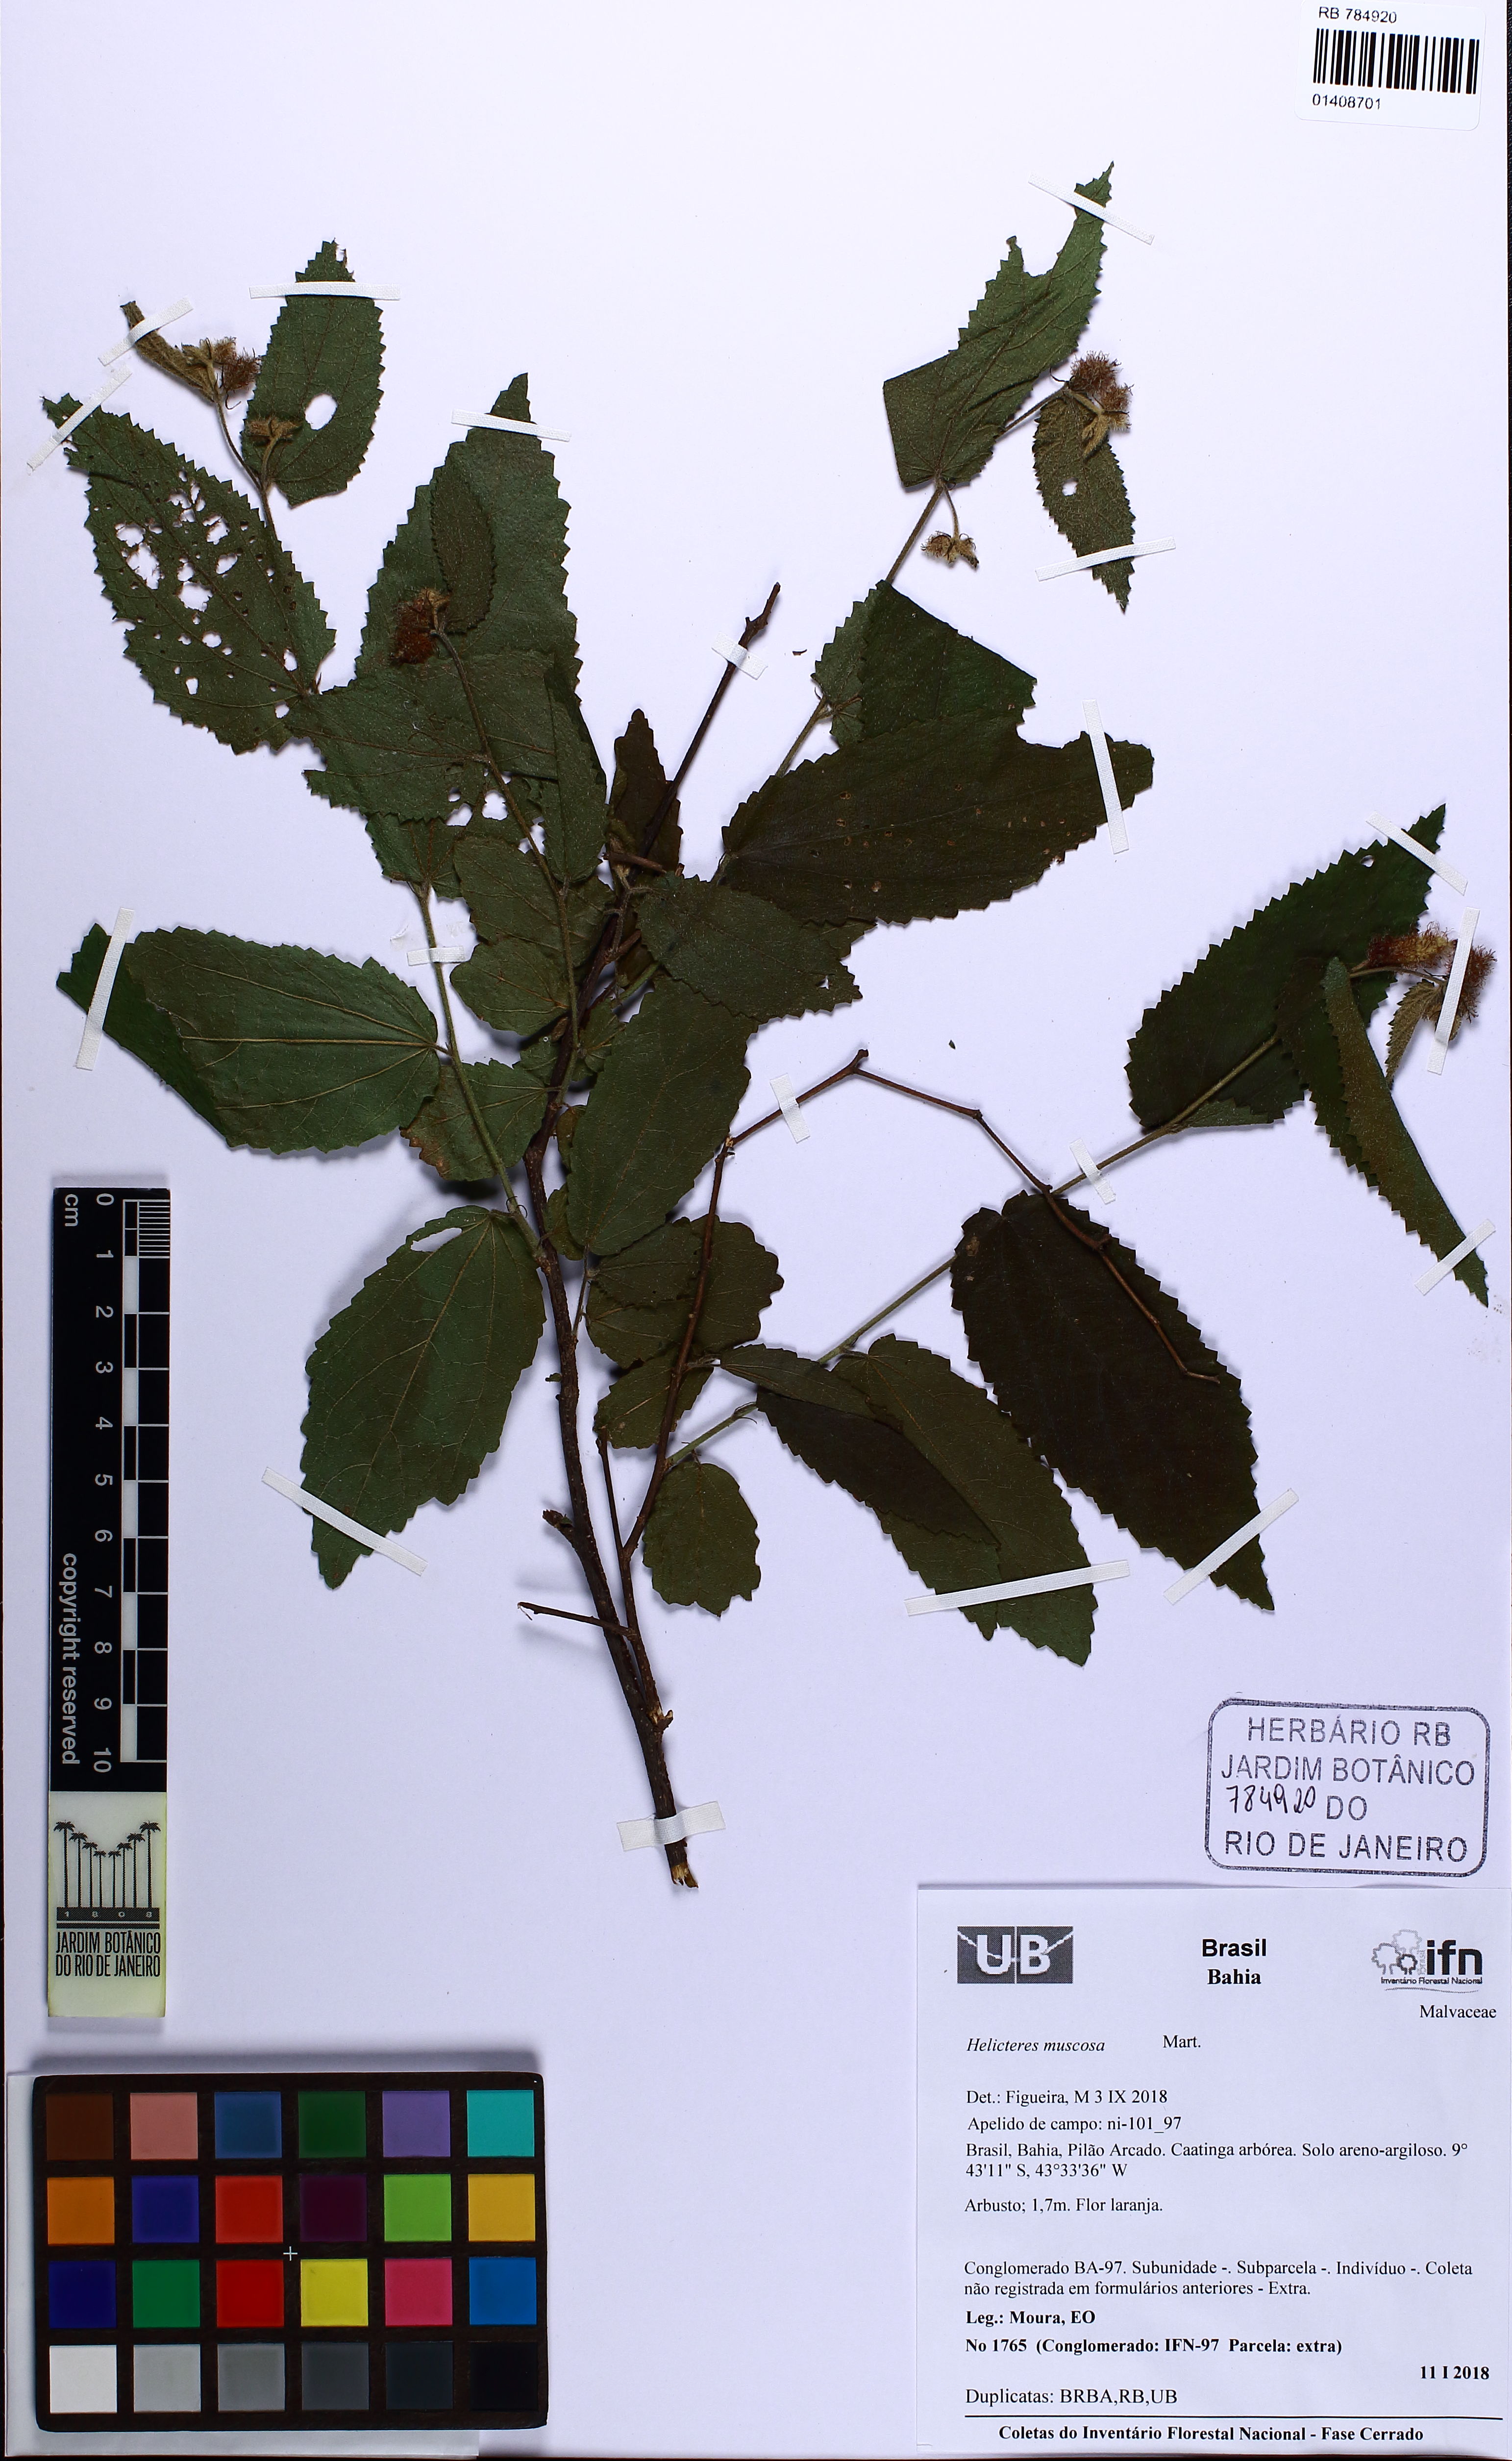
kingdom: Plantae
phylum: Tracheophyta
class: Magnoliopsida
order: Malvales
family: Malvaceae
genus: Helicteres
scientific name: Helicteres muscosa
